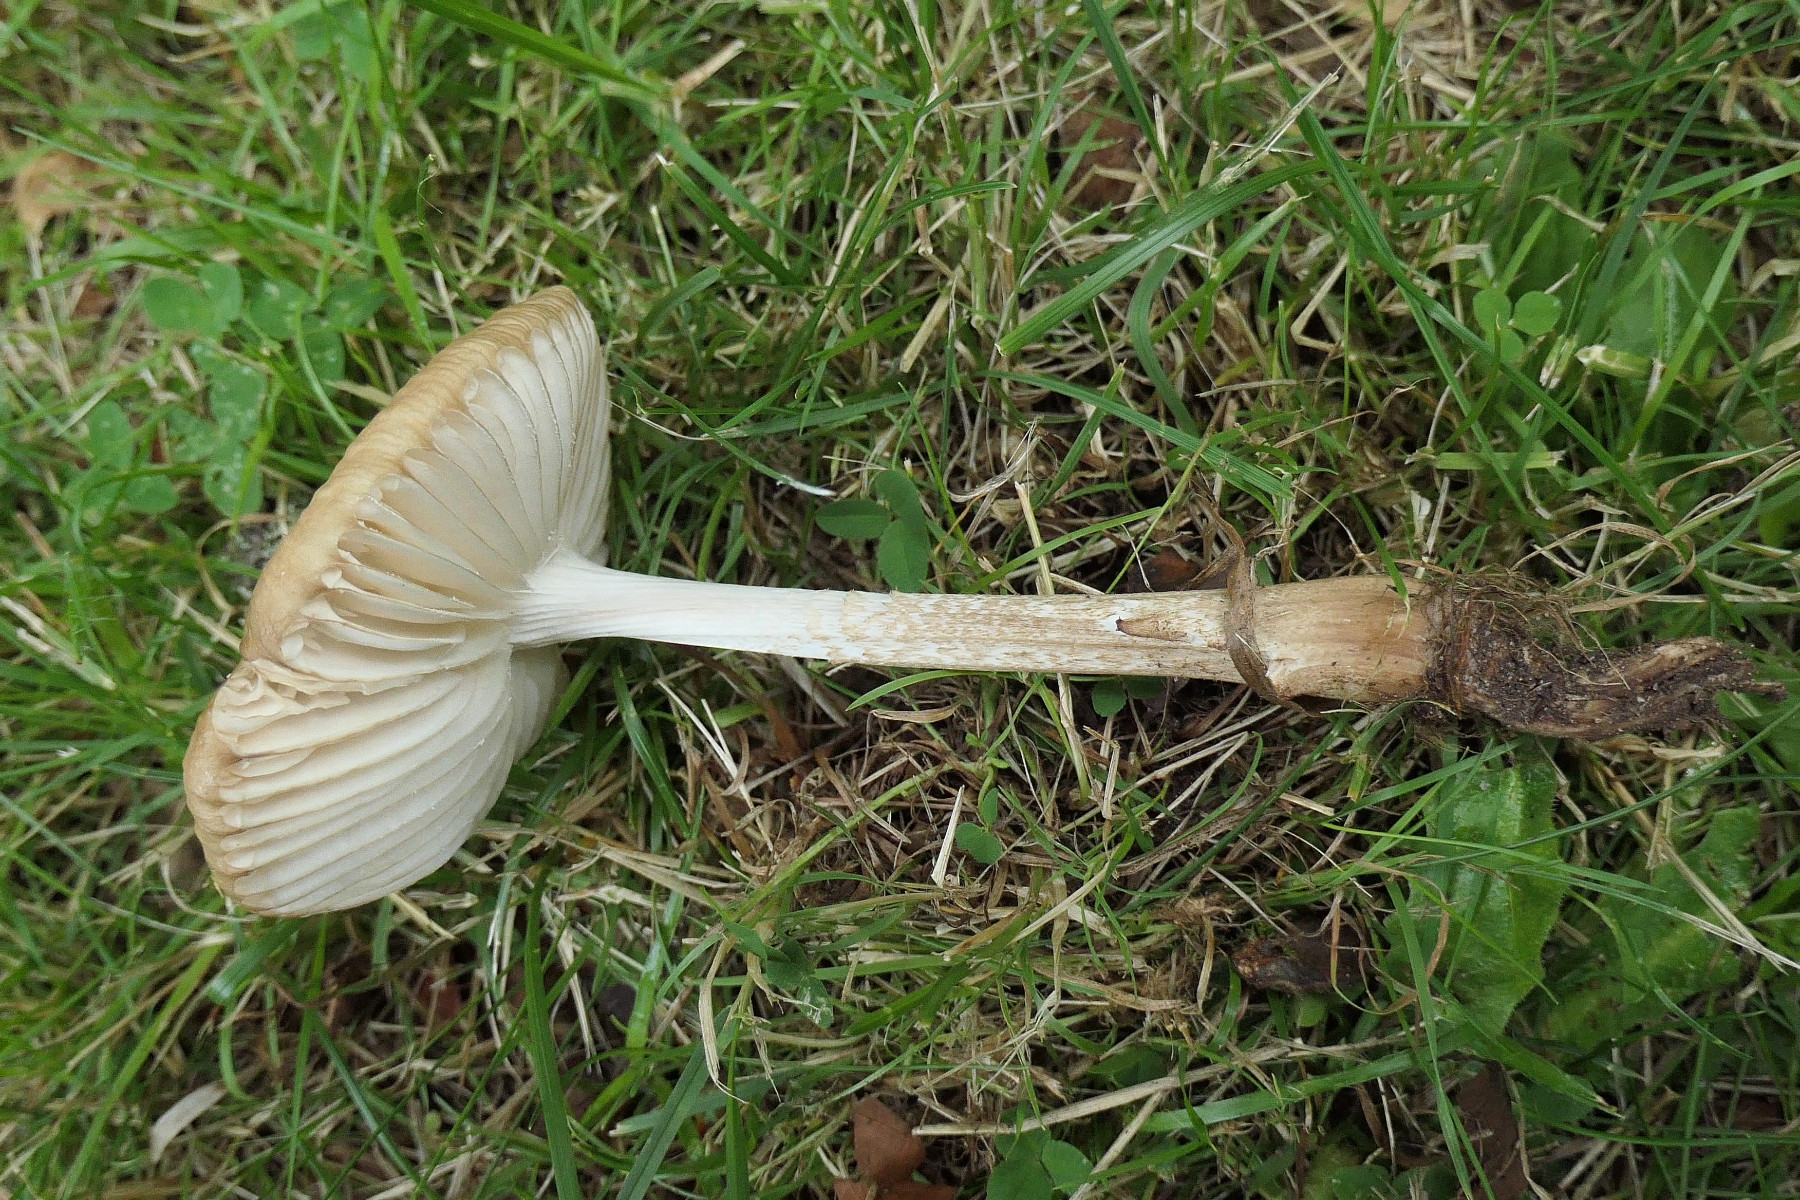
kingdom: Fungi
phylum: Basidiomycota
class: Agaricomycetes
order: Agaricales
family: Physalacriaceae
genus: Hymenopellis
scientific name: Hymenopellis radicata
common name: almindelig pælerodshat
